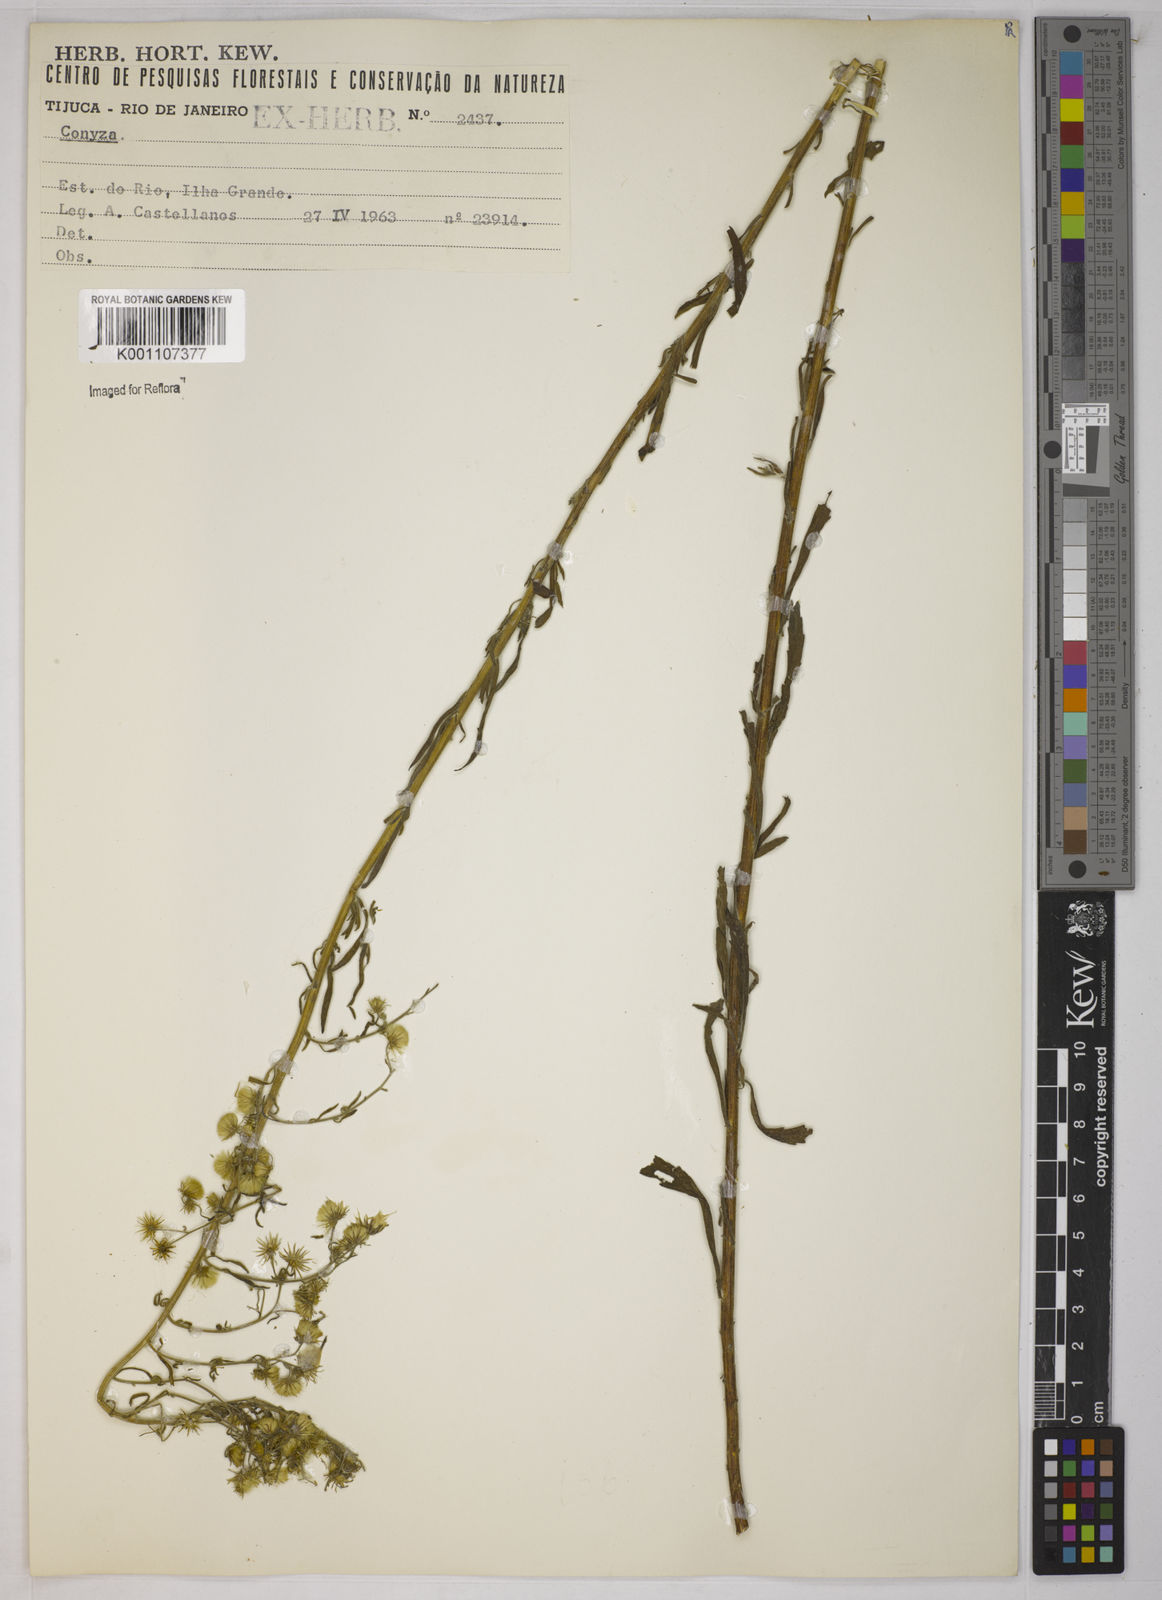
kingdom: Plantae
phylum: Tracheophyta
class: Magnoliopsida
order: Asterales
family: Asteraceae
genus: Erigeron
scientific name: Erigeron sumatrensis
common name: Daisy
